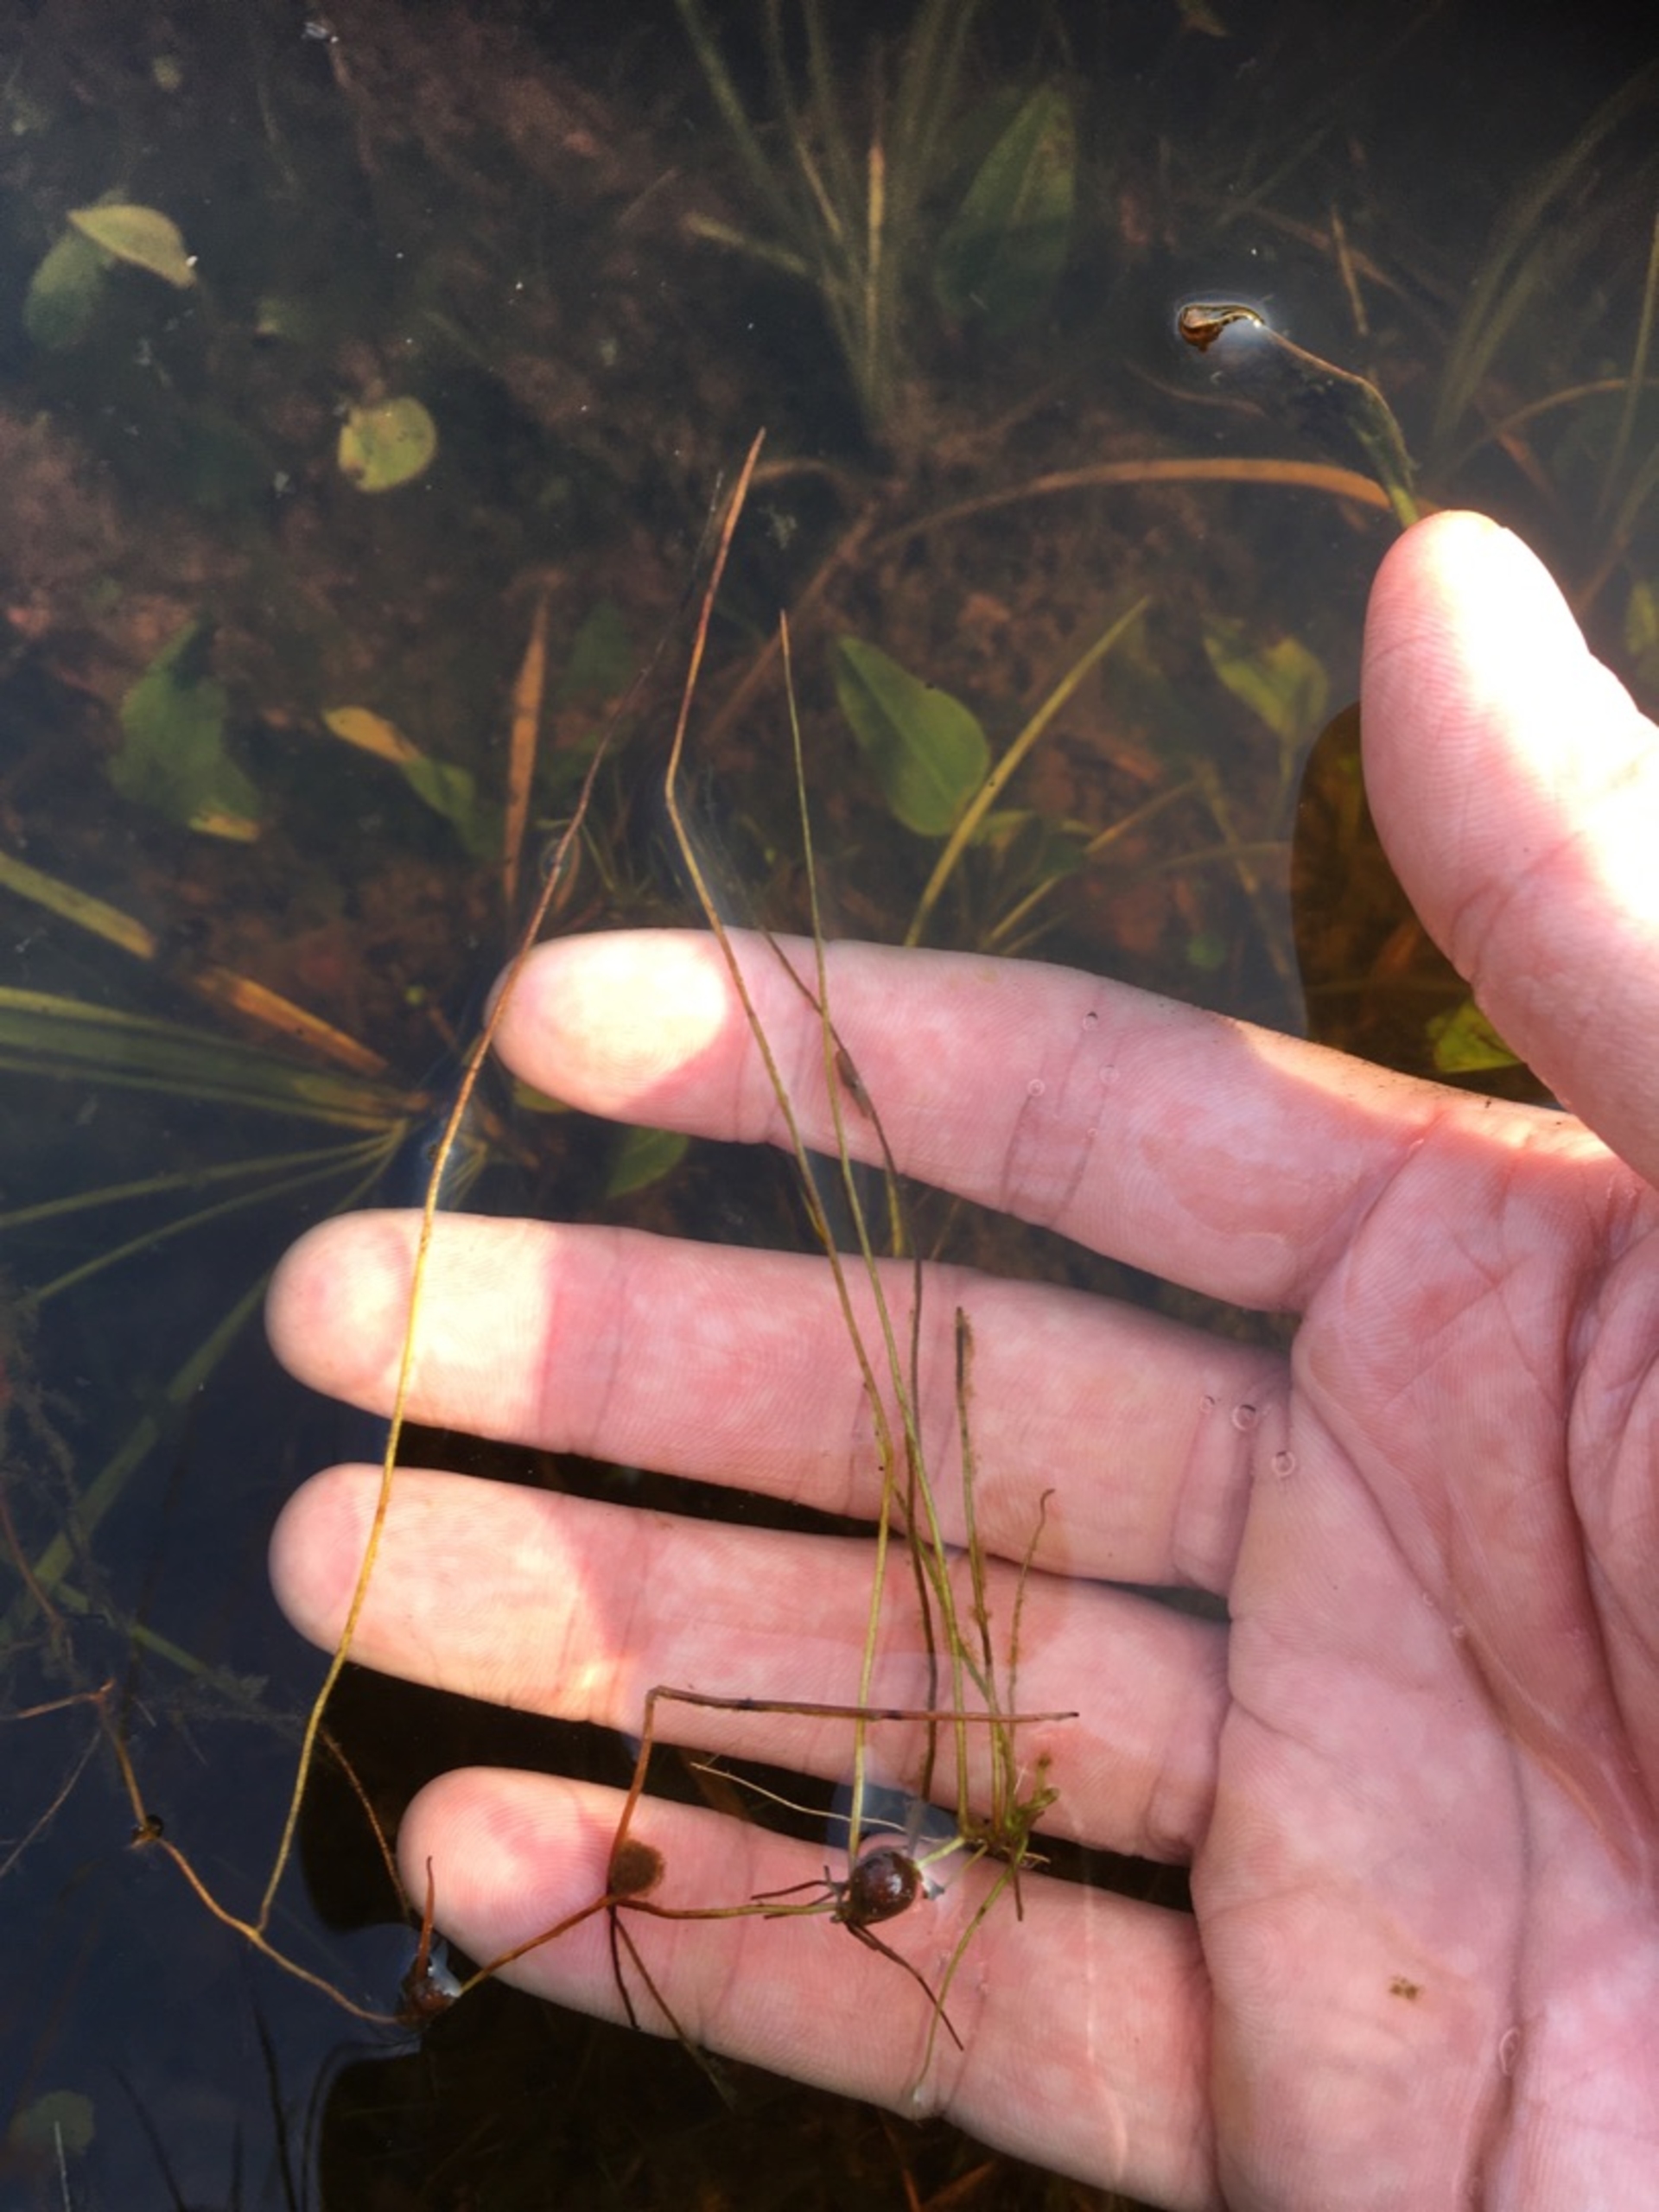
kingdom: Plantae
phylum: Tracheophyta
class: Polypodiopsida
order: Salviniales
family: Marsileaceae
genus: Pilularia
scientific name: Pilularia globulifera
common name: Pilledrager
